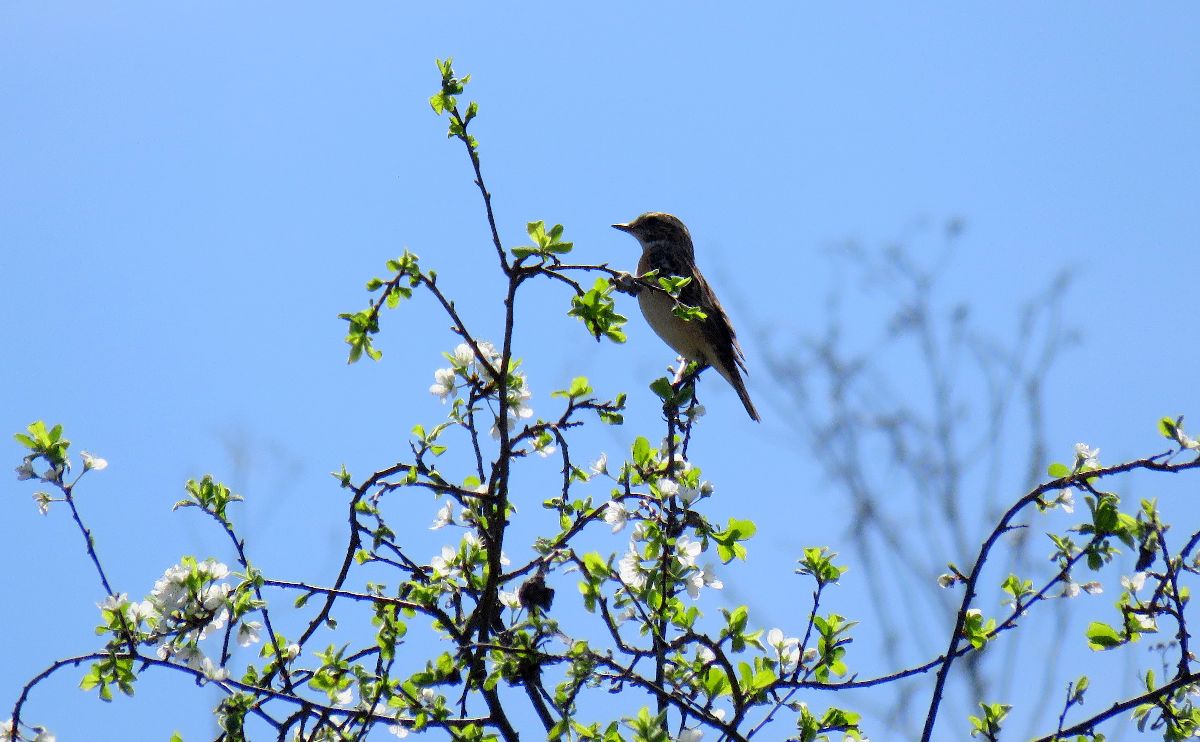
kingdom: Animalia
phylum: Chordata
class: Aves
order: Passeriformes
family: Muscicapidae
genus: Saxicola
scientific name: Saxicola rubetra
